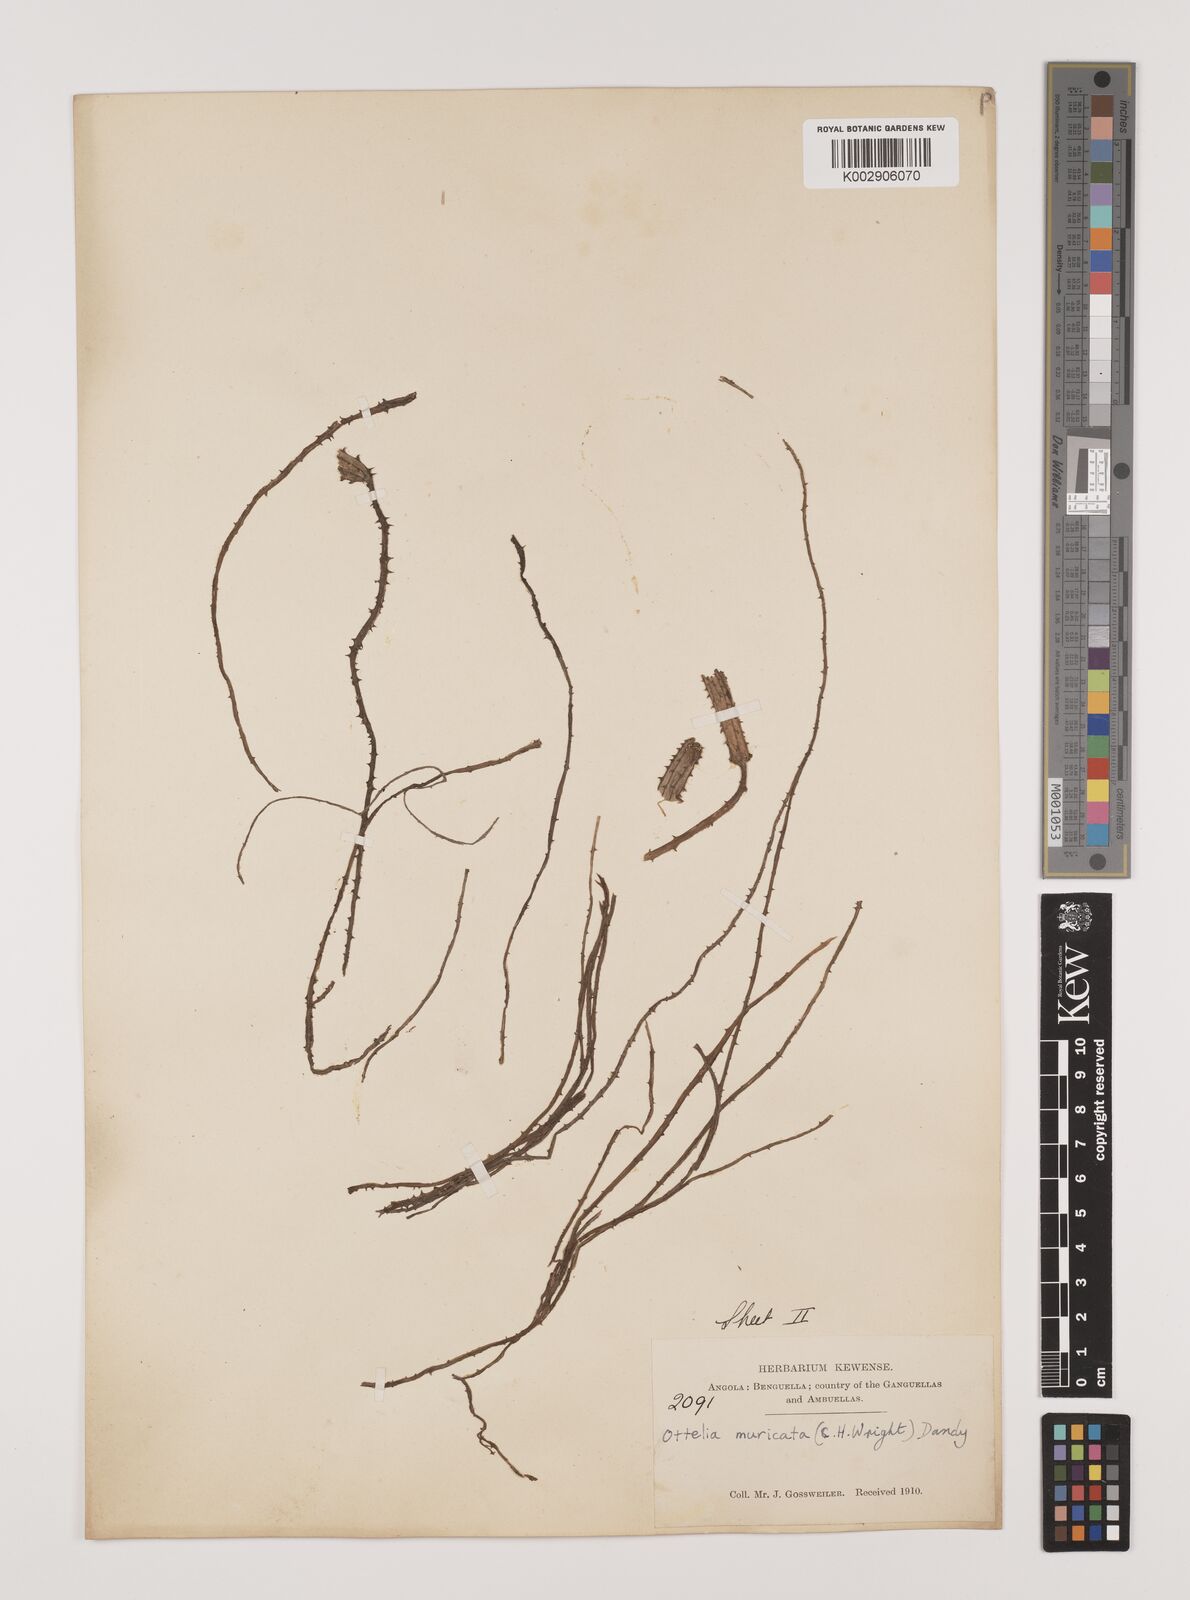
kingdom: Plantae
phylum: Tracheophyta
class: Liliopsida
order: Alismatales
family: Hydrocharitaceae
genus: Ottelia
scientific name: Ottelia muricata
